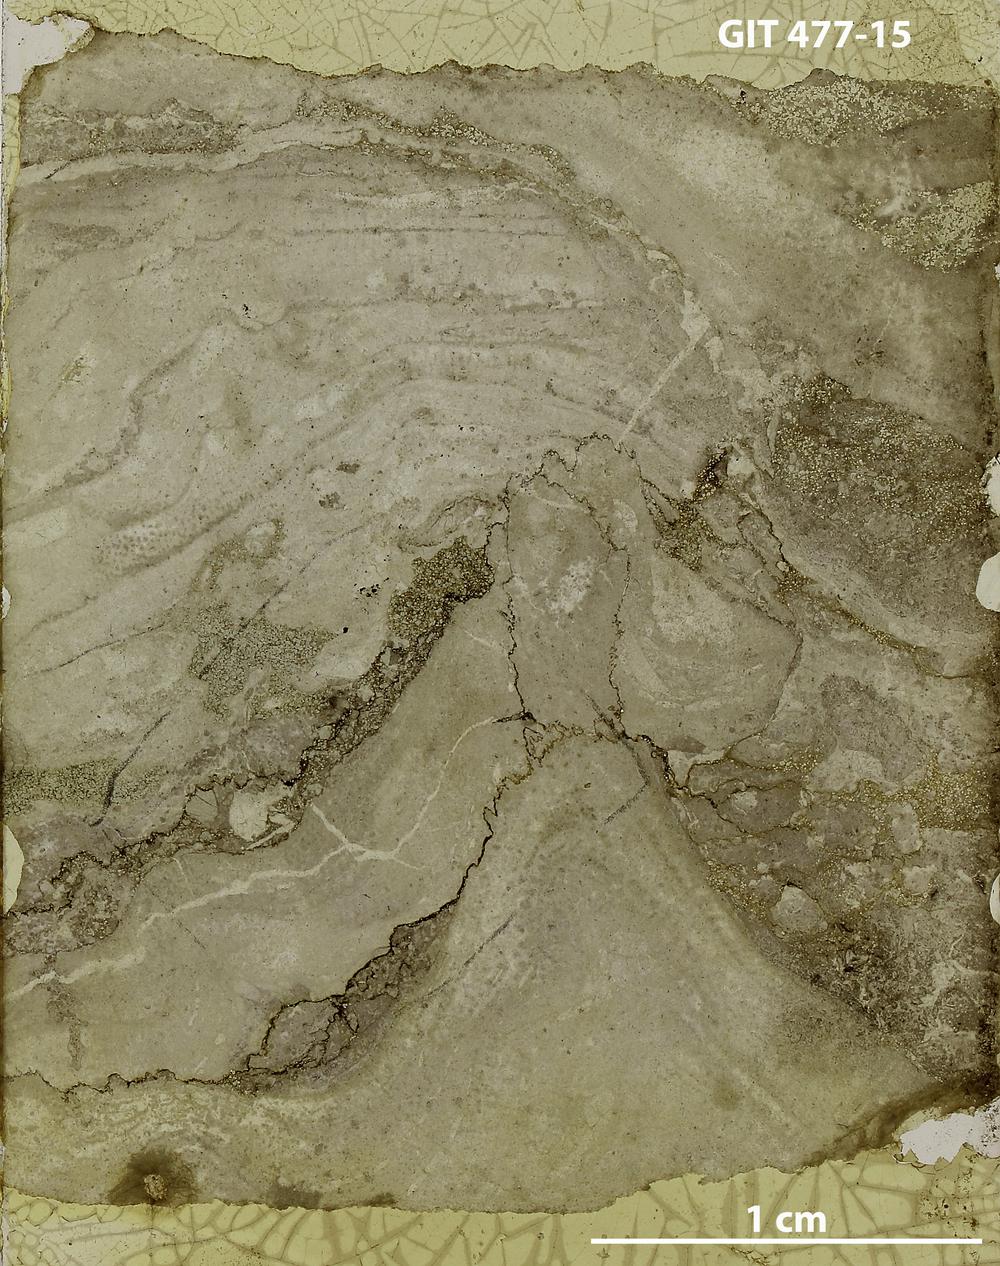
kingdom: Animalia
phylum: Porifera
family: Stylostromatidae
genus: Pachystylostroma
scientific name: Pachystylostroma
